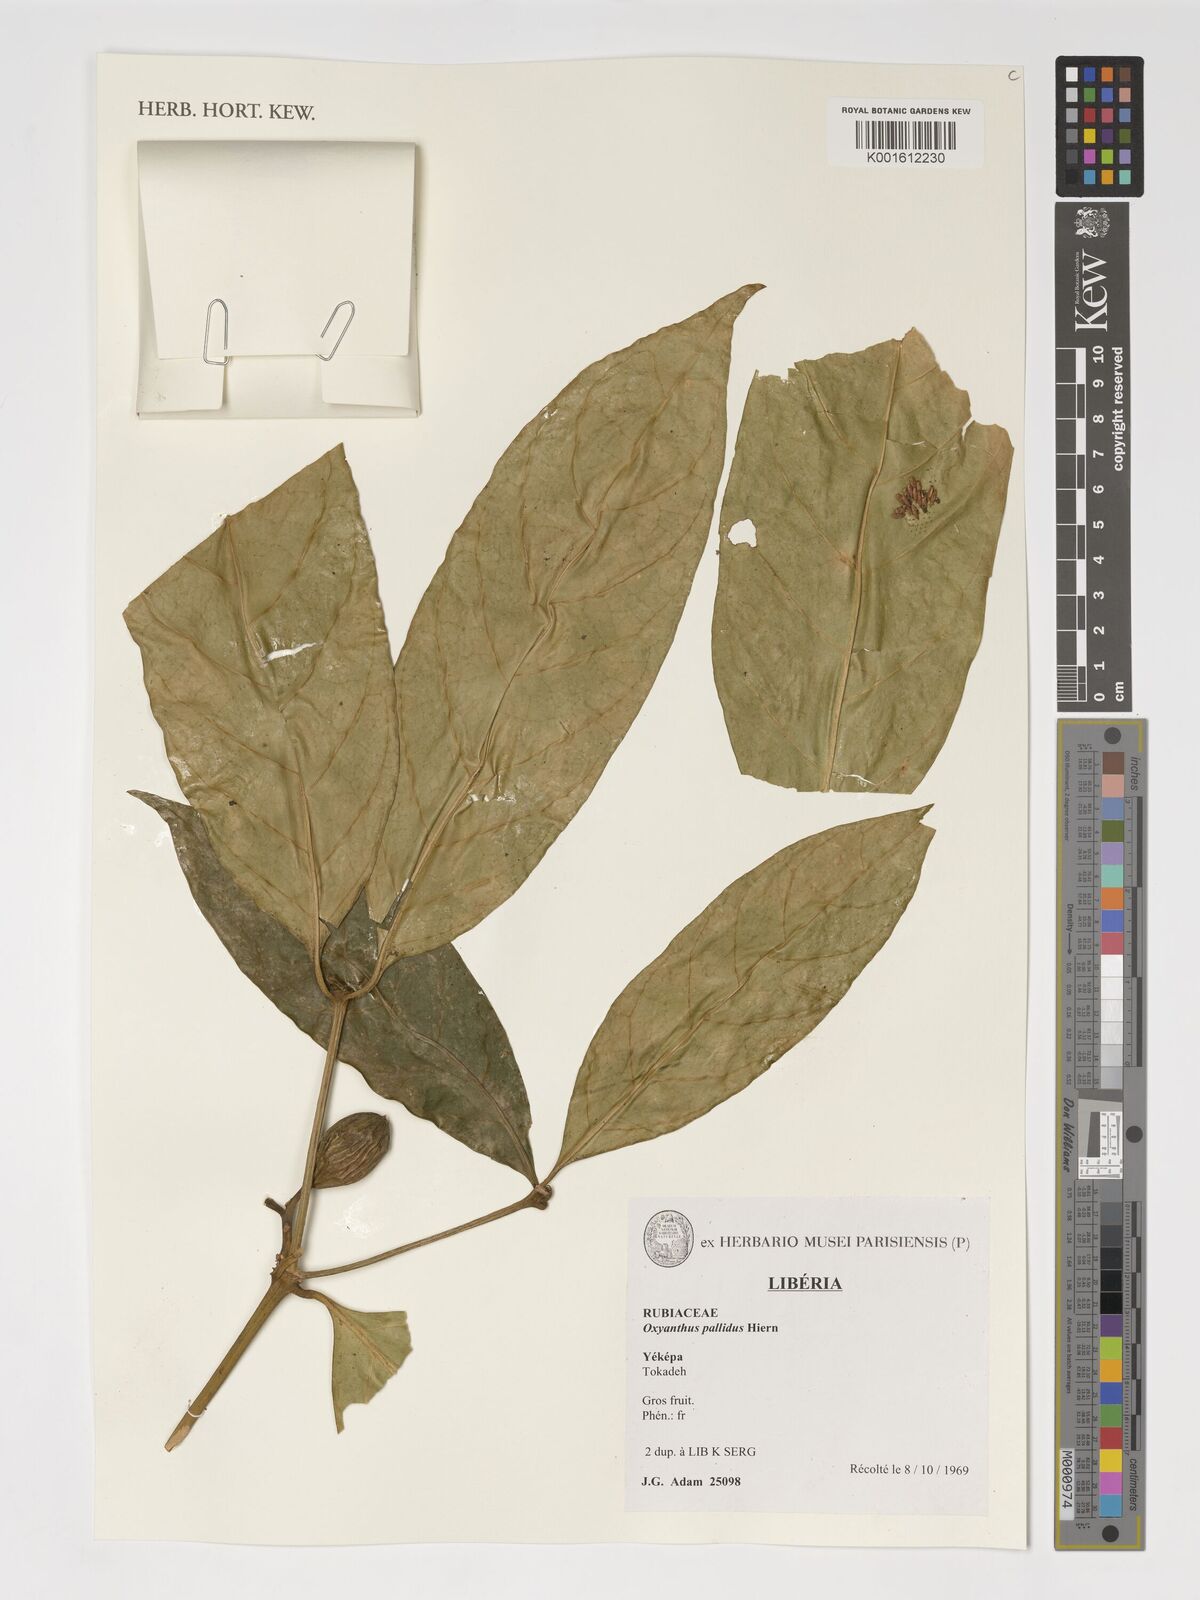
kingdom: Plantae
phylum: Tracheophyta
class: Magnoliopsida
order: Gentianales
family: Rubiaceae
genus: Oxyanthus
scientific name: Oxyanthus pallidus
